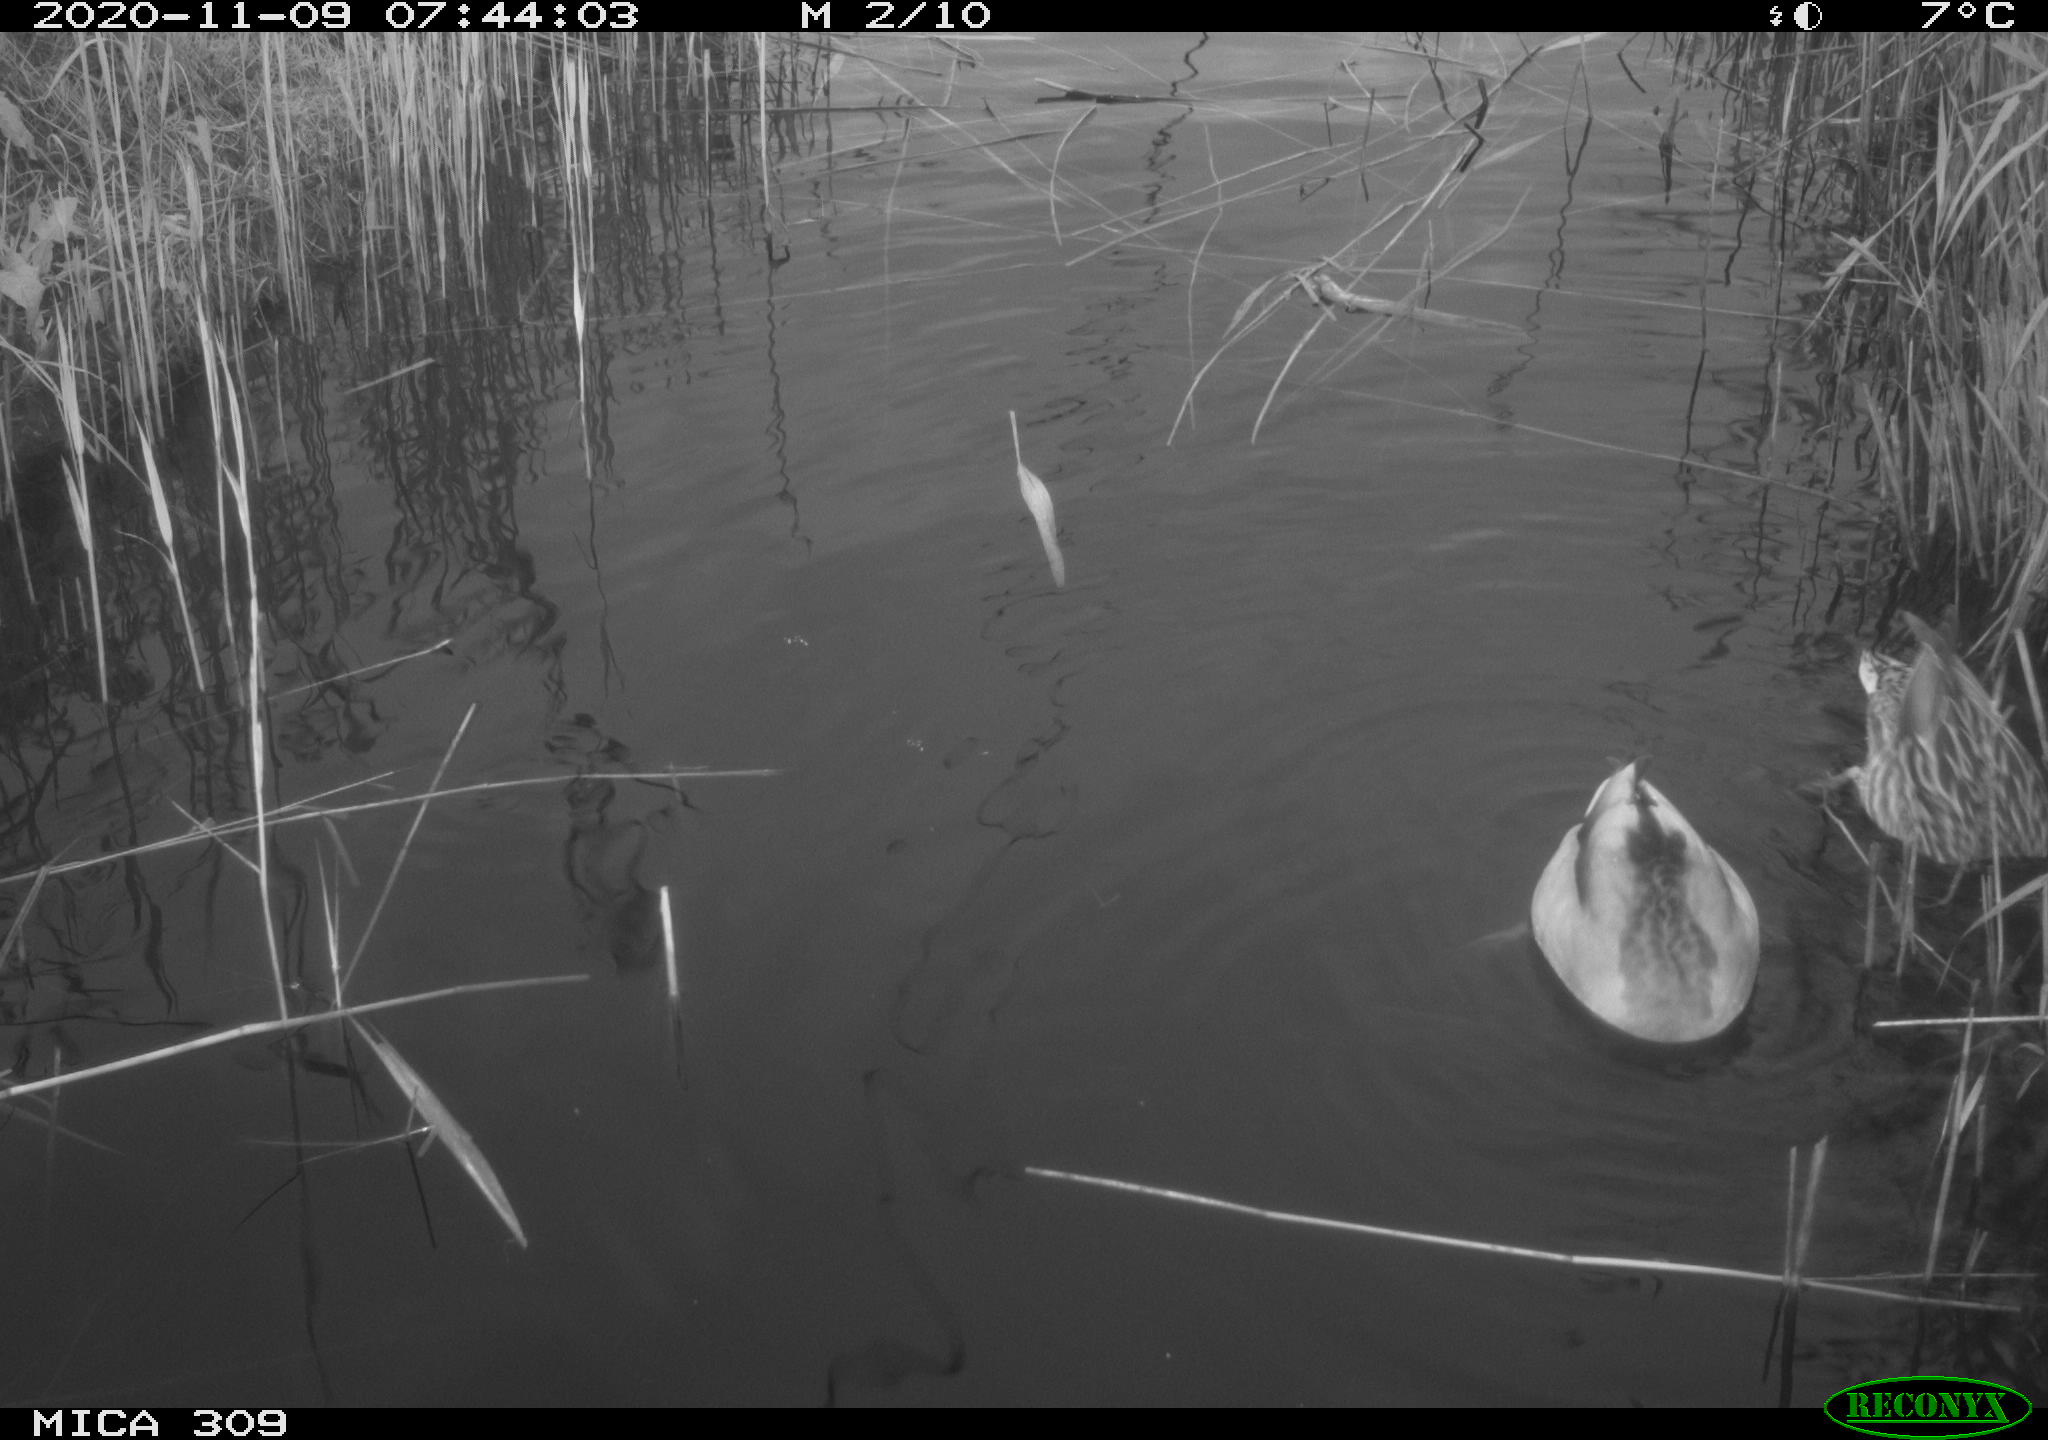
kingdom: Animalia
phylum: Chordata
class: Aves
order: Anseriformes
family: Anatidae
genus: Anas
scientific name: Anas platyrhynchos
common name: Mallard
